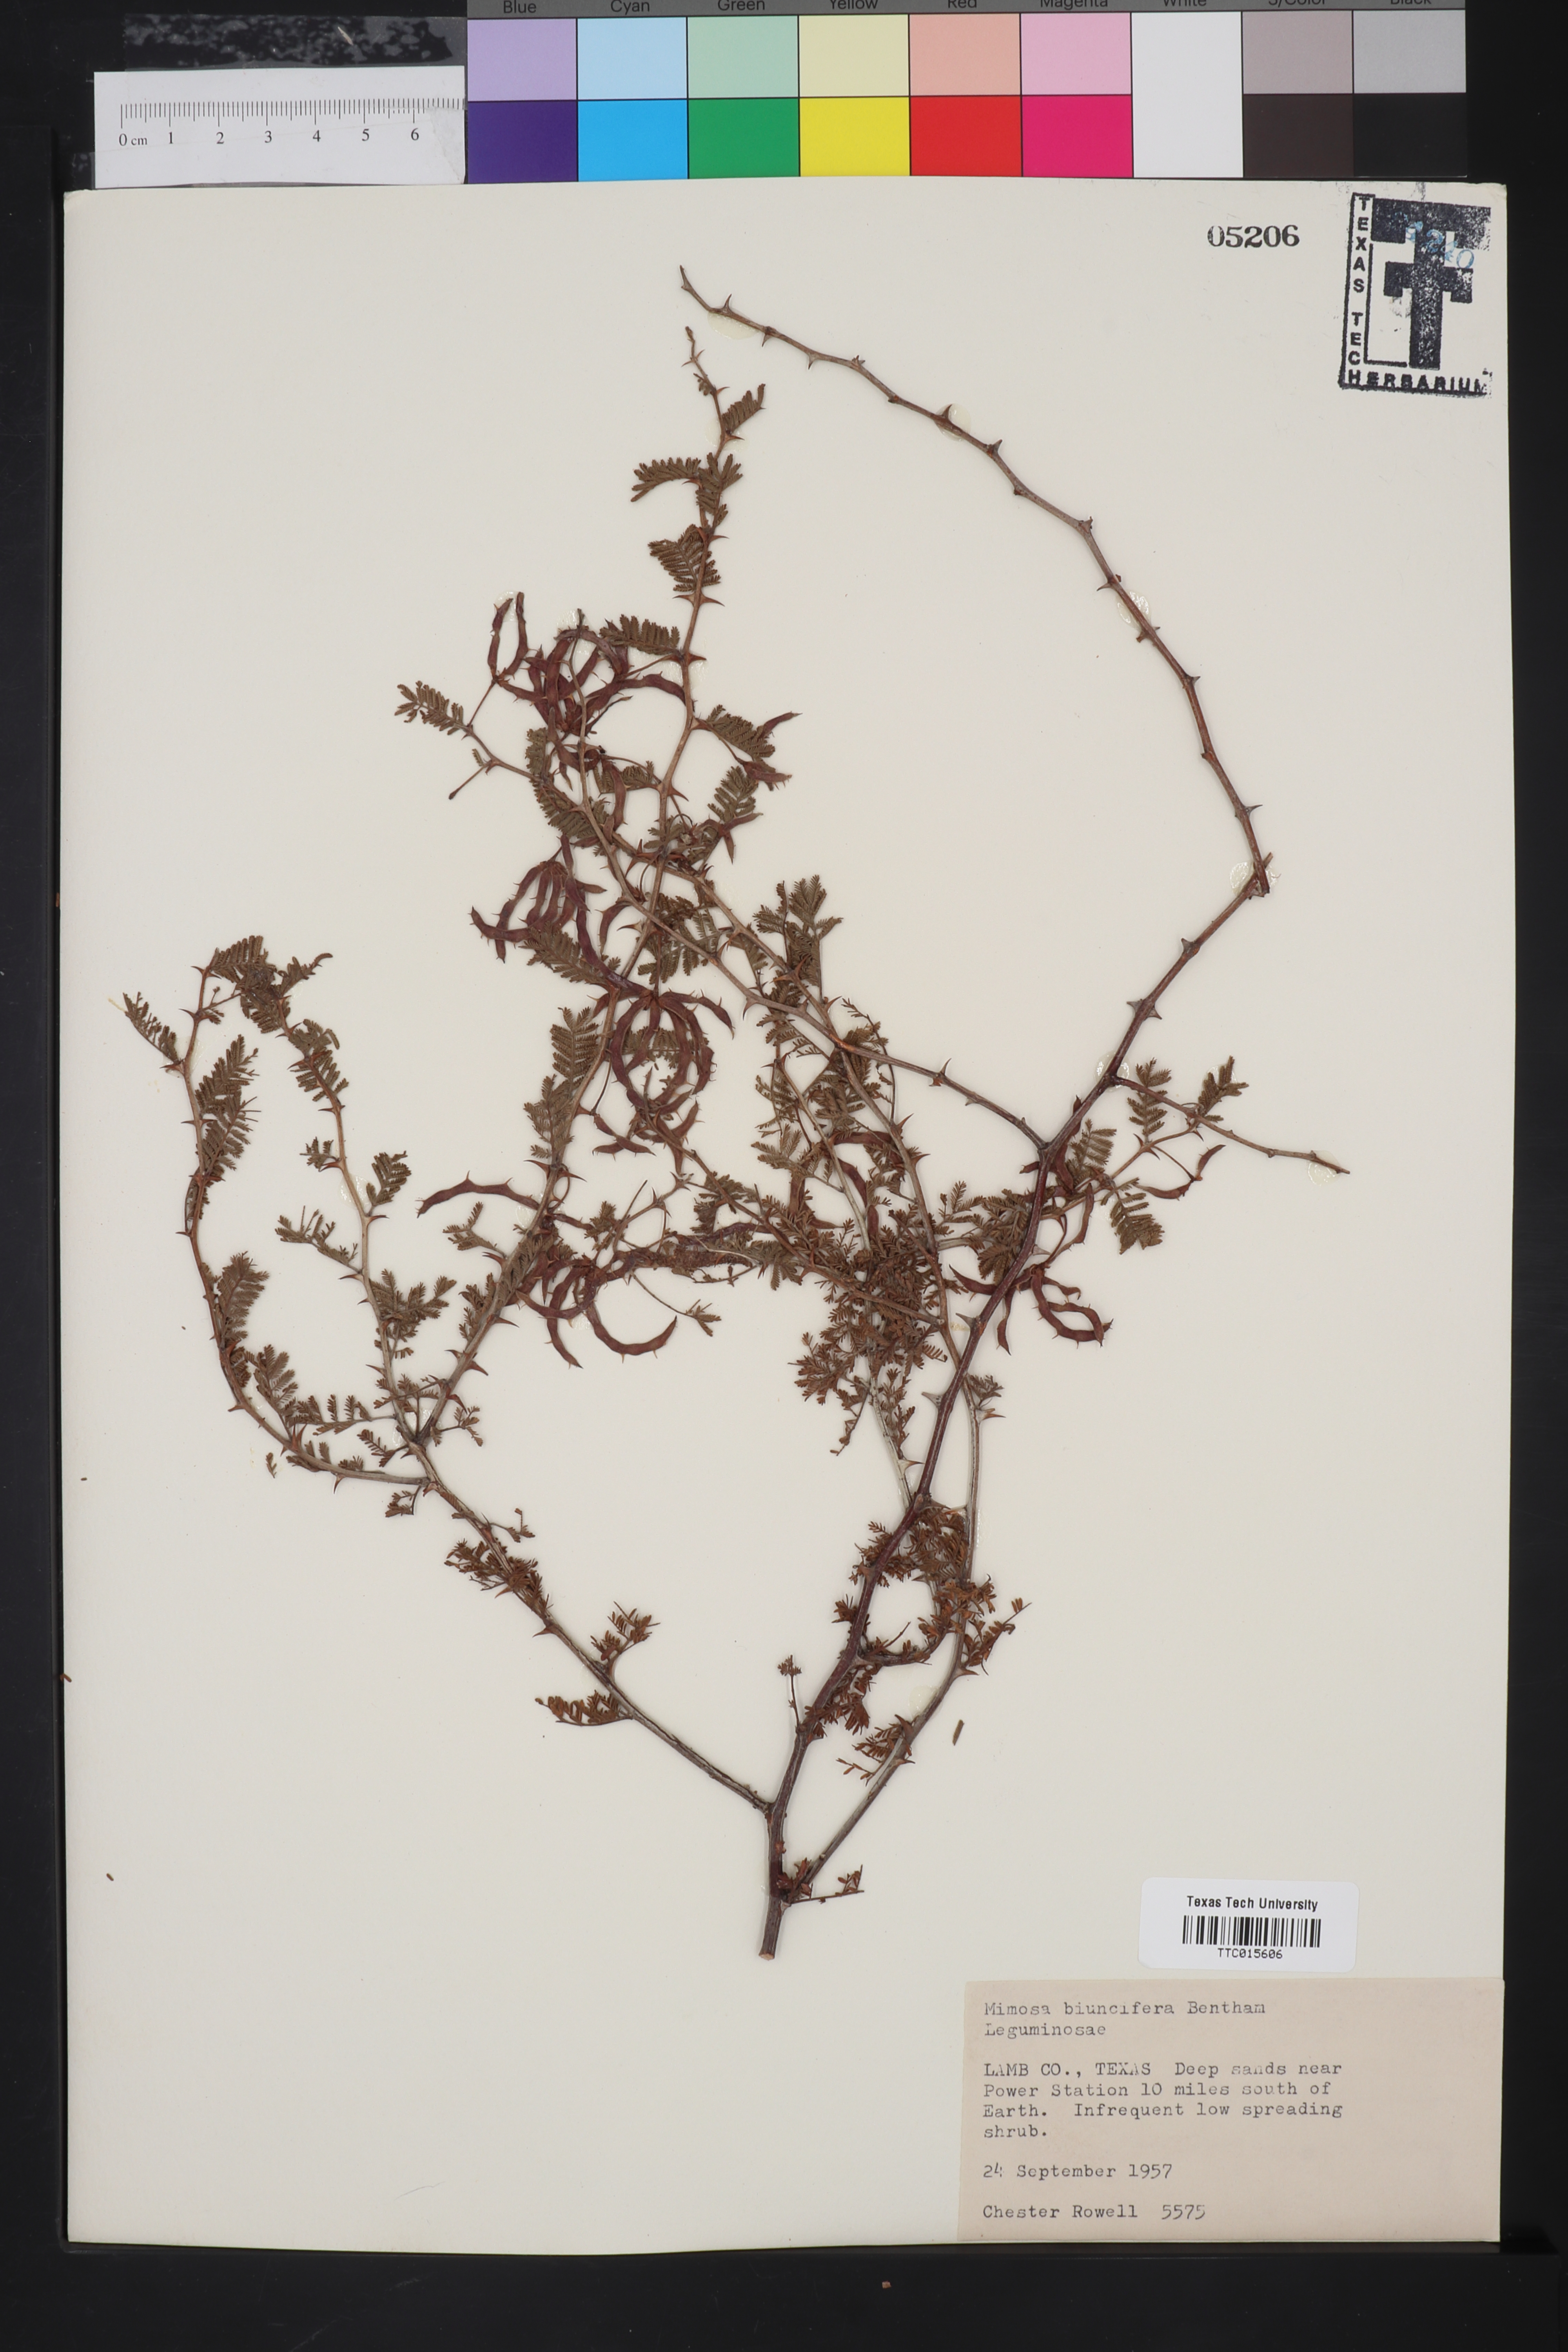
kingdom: Plantae
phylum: Tracheophyta
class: Magnoliopsida
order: Fabales
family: Fabaceae
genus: Mimosa
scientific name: Mimosa biuncifera
